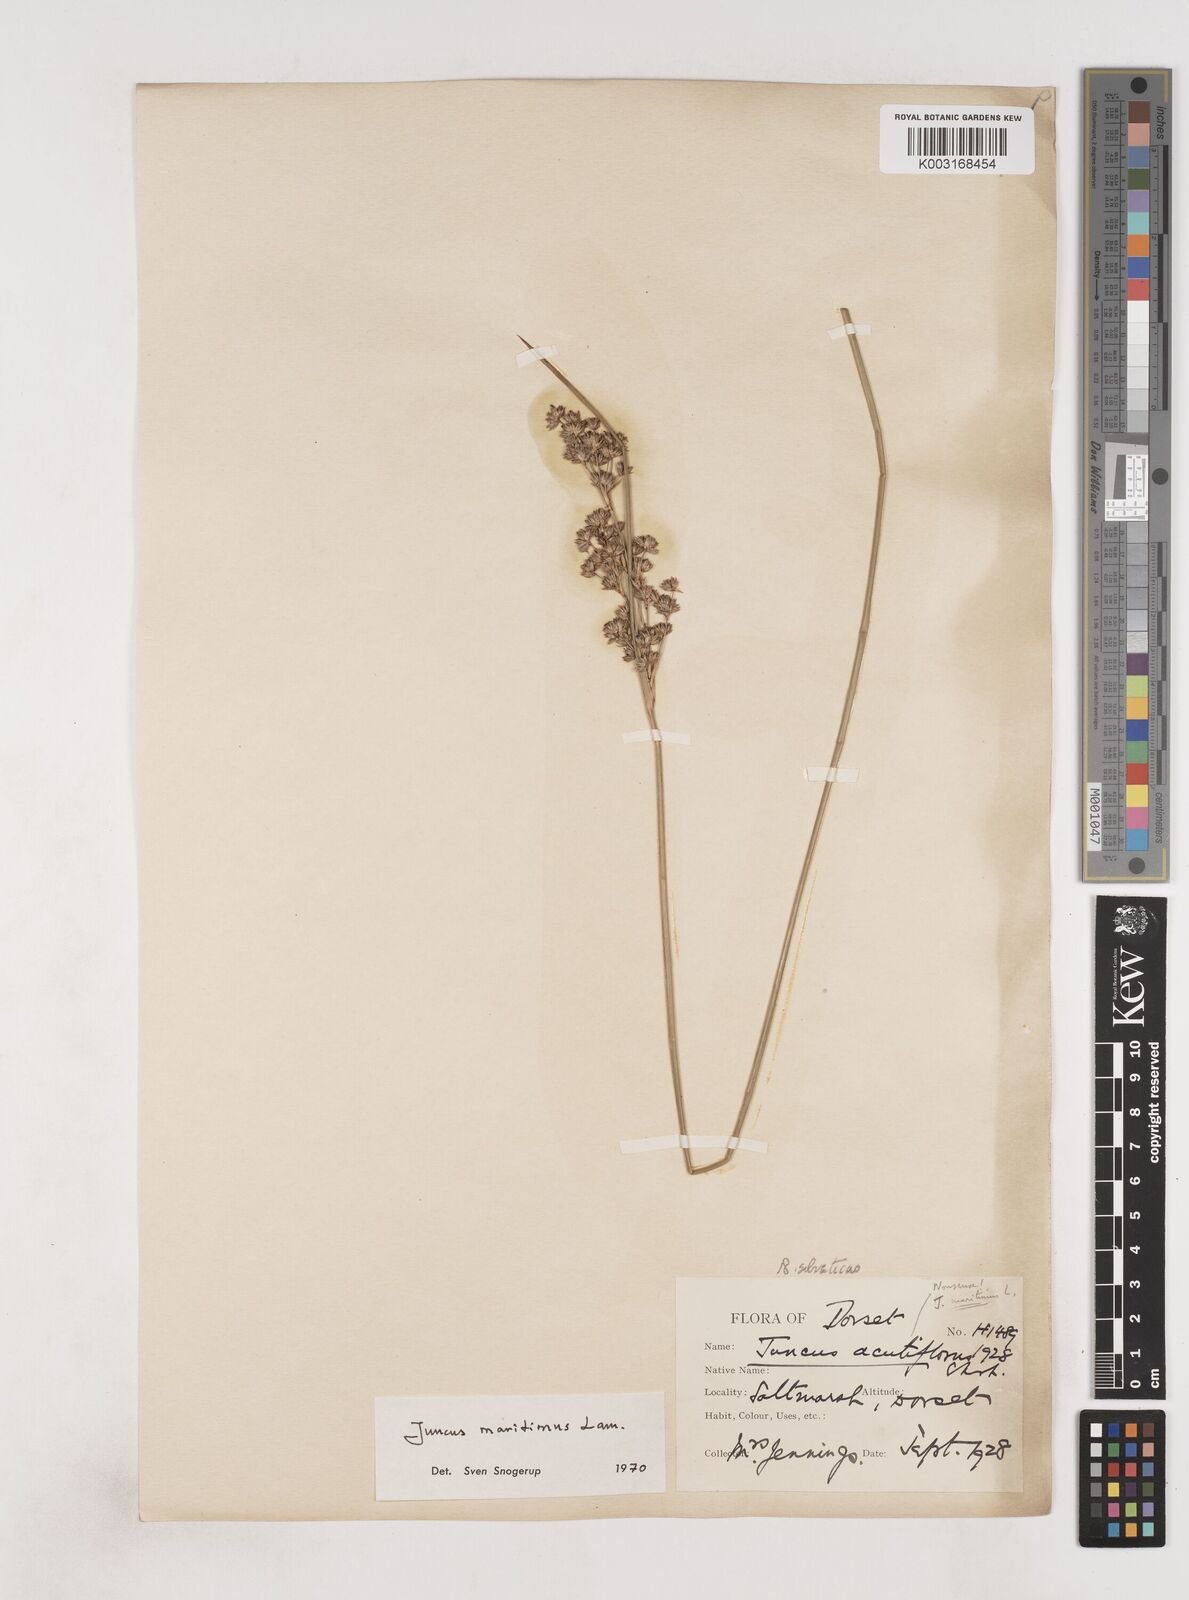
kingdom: Plantae
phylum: Tracheophyta
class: Liliopsida
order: Poales
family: Juncaceae
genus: Juncus
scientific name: Juncus maritimus
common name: Sea rush
